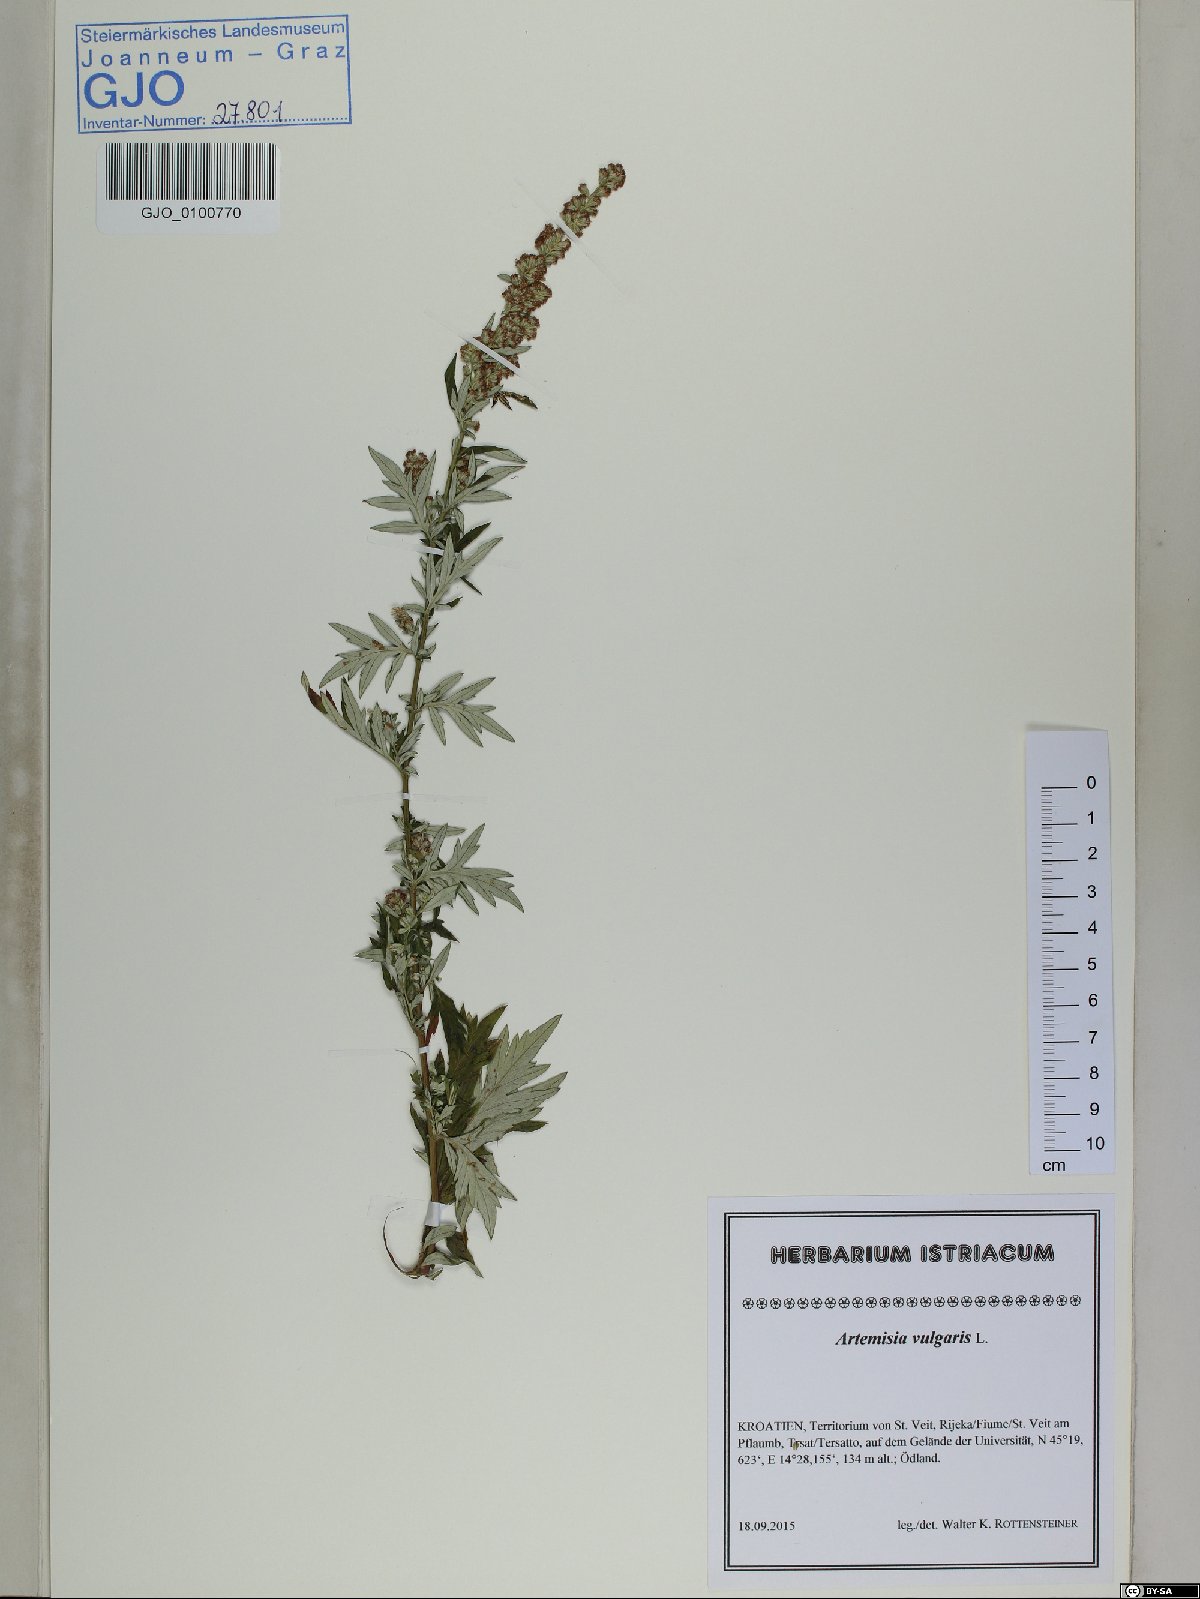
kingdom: Plantae
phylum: Tracheophyta
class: Magnoliopsida
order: Asterales
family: Asteraceae
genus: Artemisia
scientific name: Artemisia vulgaris
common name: Mugwort
